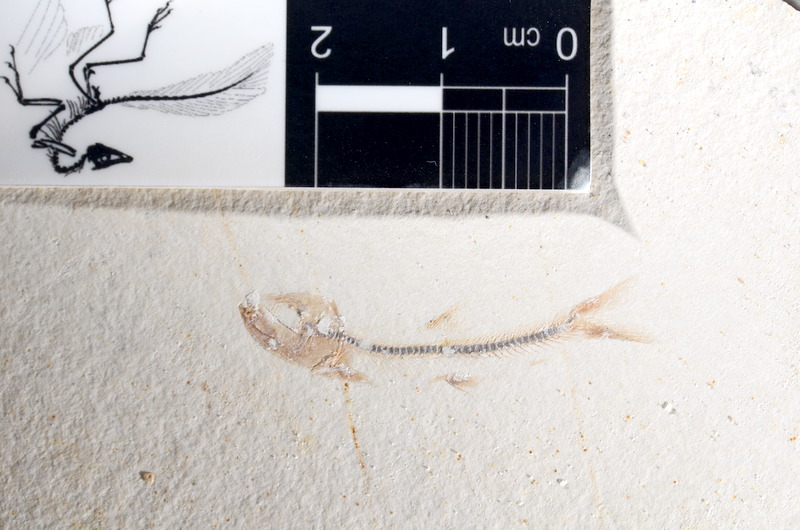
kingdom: Animalia
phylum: Chordata
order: Salmoniformes
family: Orthogonikleithridae
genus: Orthogonikleithrus
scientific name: Orthogonikleithrus hoelli
